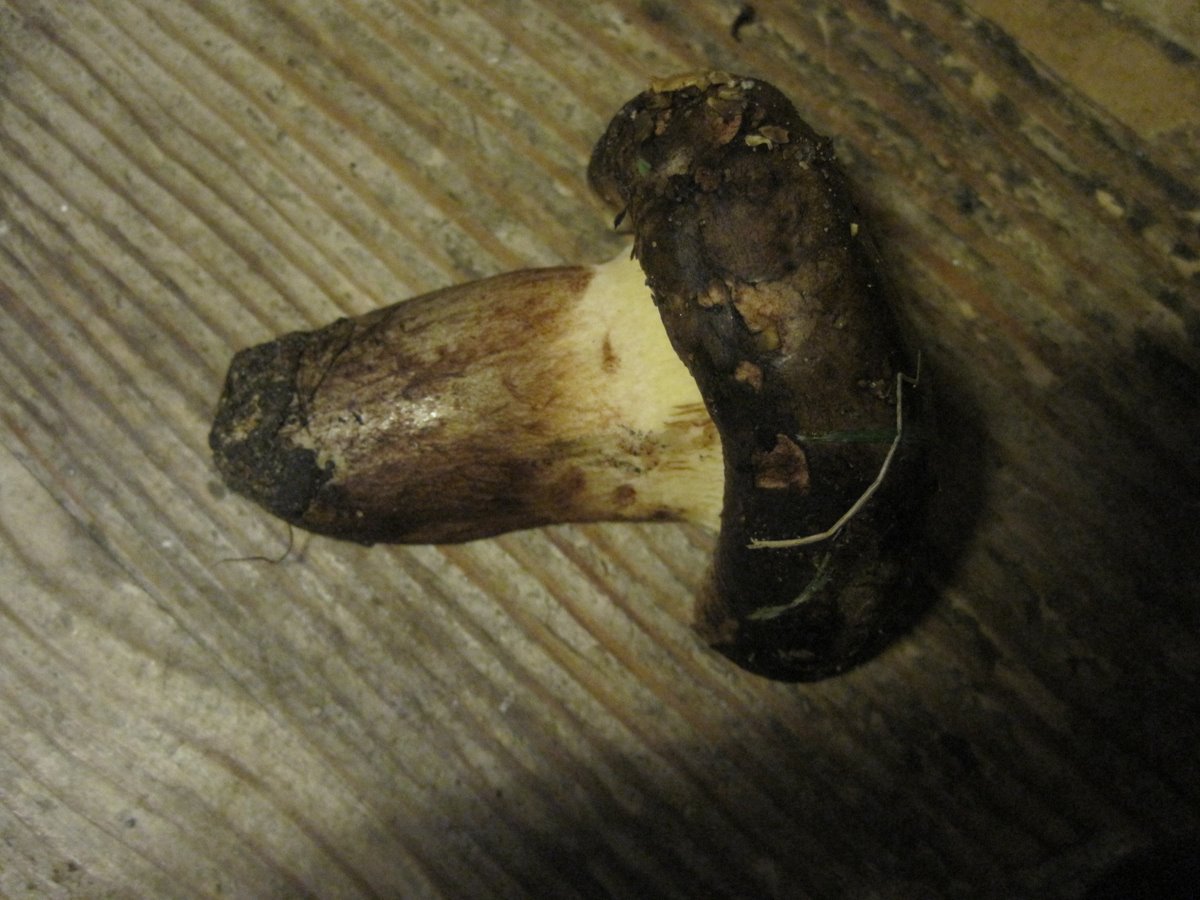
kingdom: Fungi
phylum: Basidiomycota
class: Agaricomycetes
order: Boletales
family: Paxillaceae
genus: Paxillus
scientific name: Paxillus obscurisporus
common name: mahognisporet netbladhat
